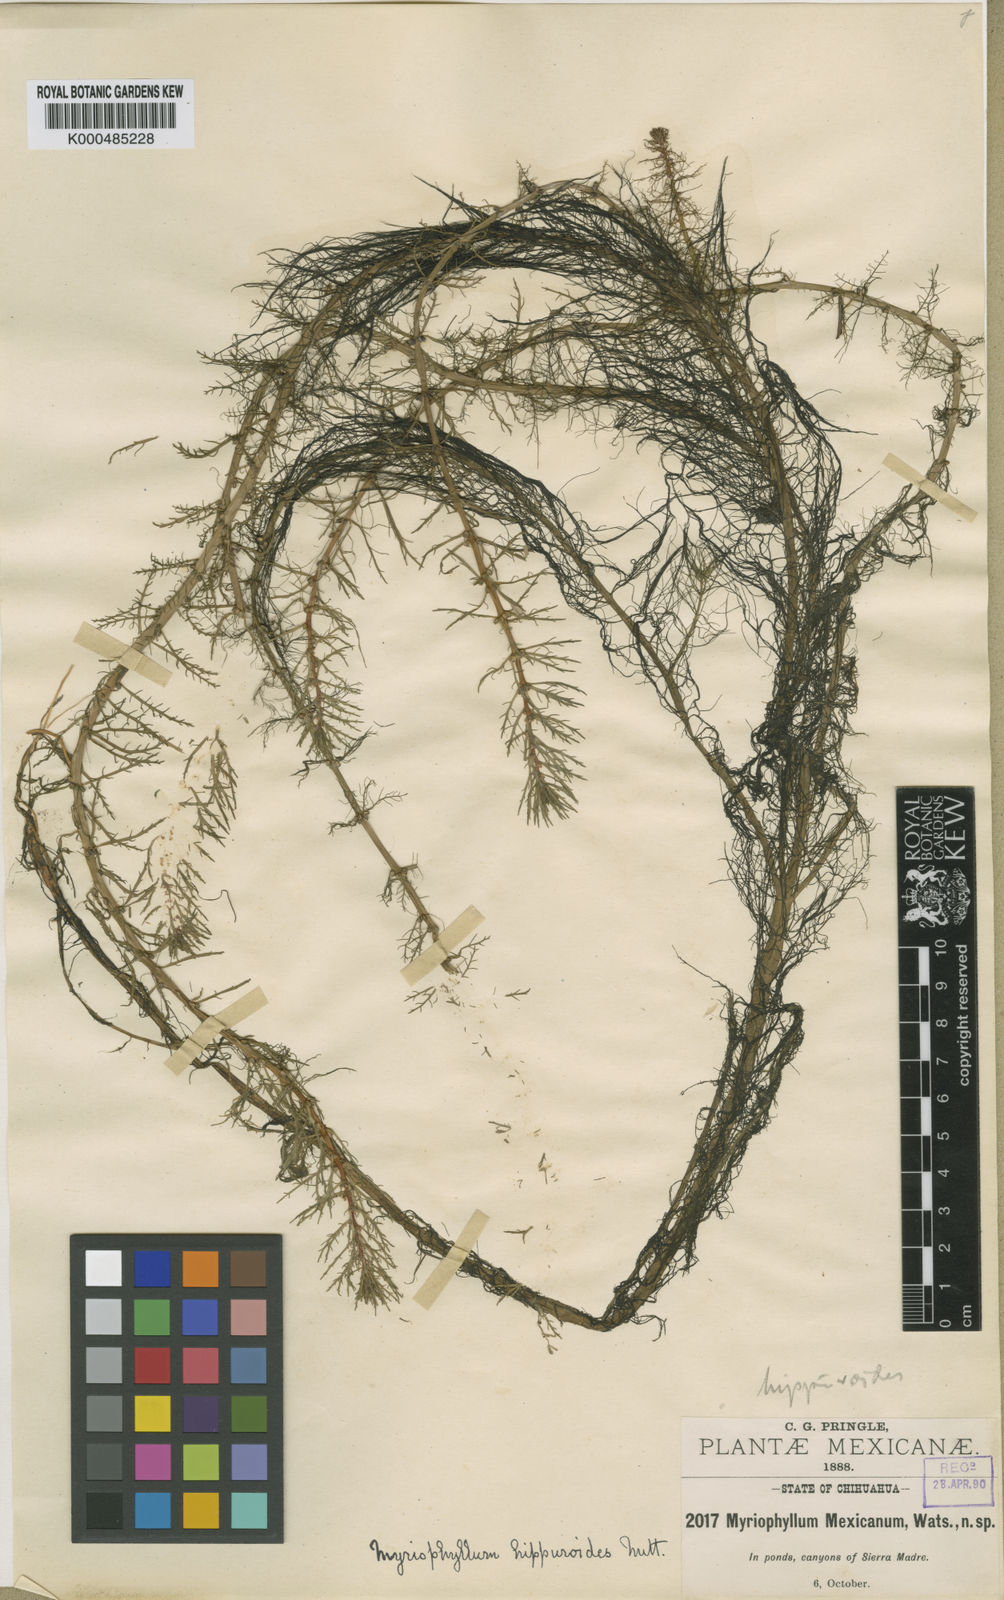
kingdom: Plantae
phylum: Tracheophyta
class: Magnoliopsida
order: Saxifragales
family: Haloragaceae
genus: Myriophyllum
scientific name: Myriophyllum
